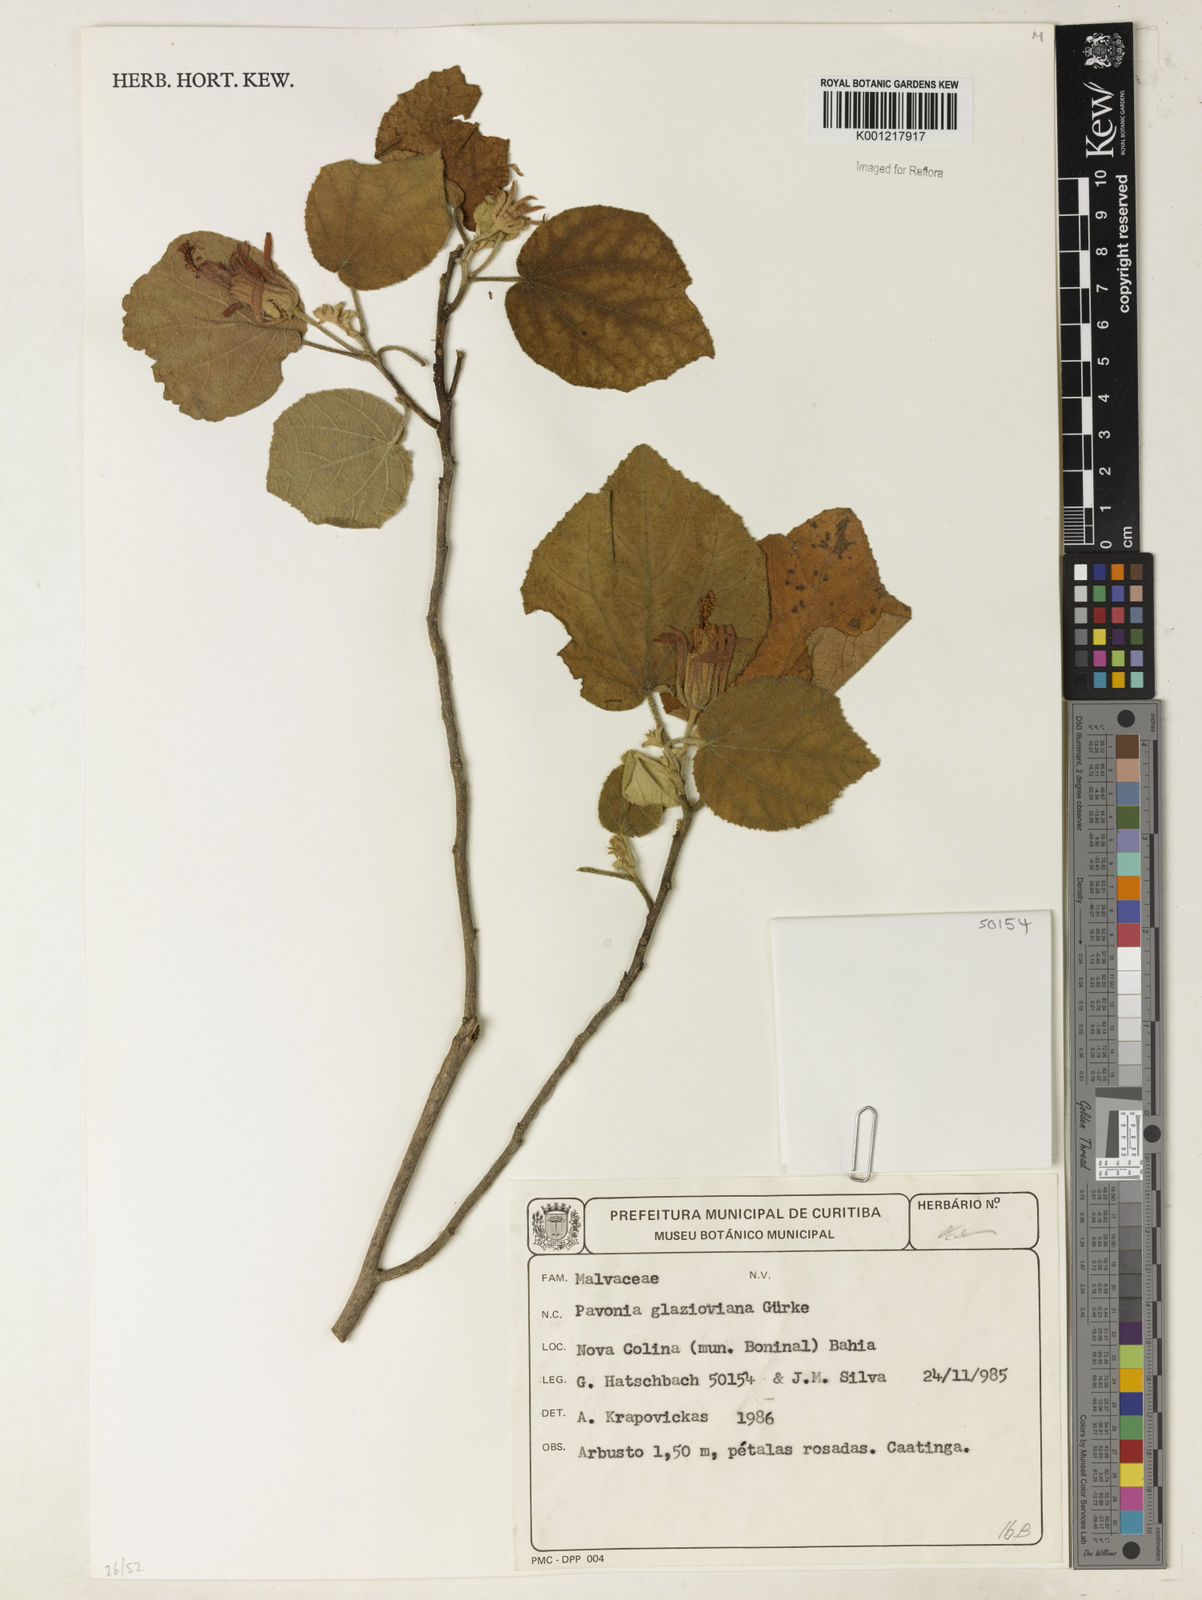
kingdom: Plantae
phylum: Tracheophyta
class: Magnoliopsida
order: Malvales
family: Malvaceae
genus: Pavonia
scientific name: Pavonia
